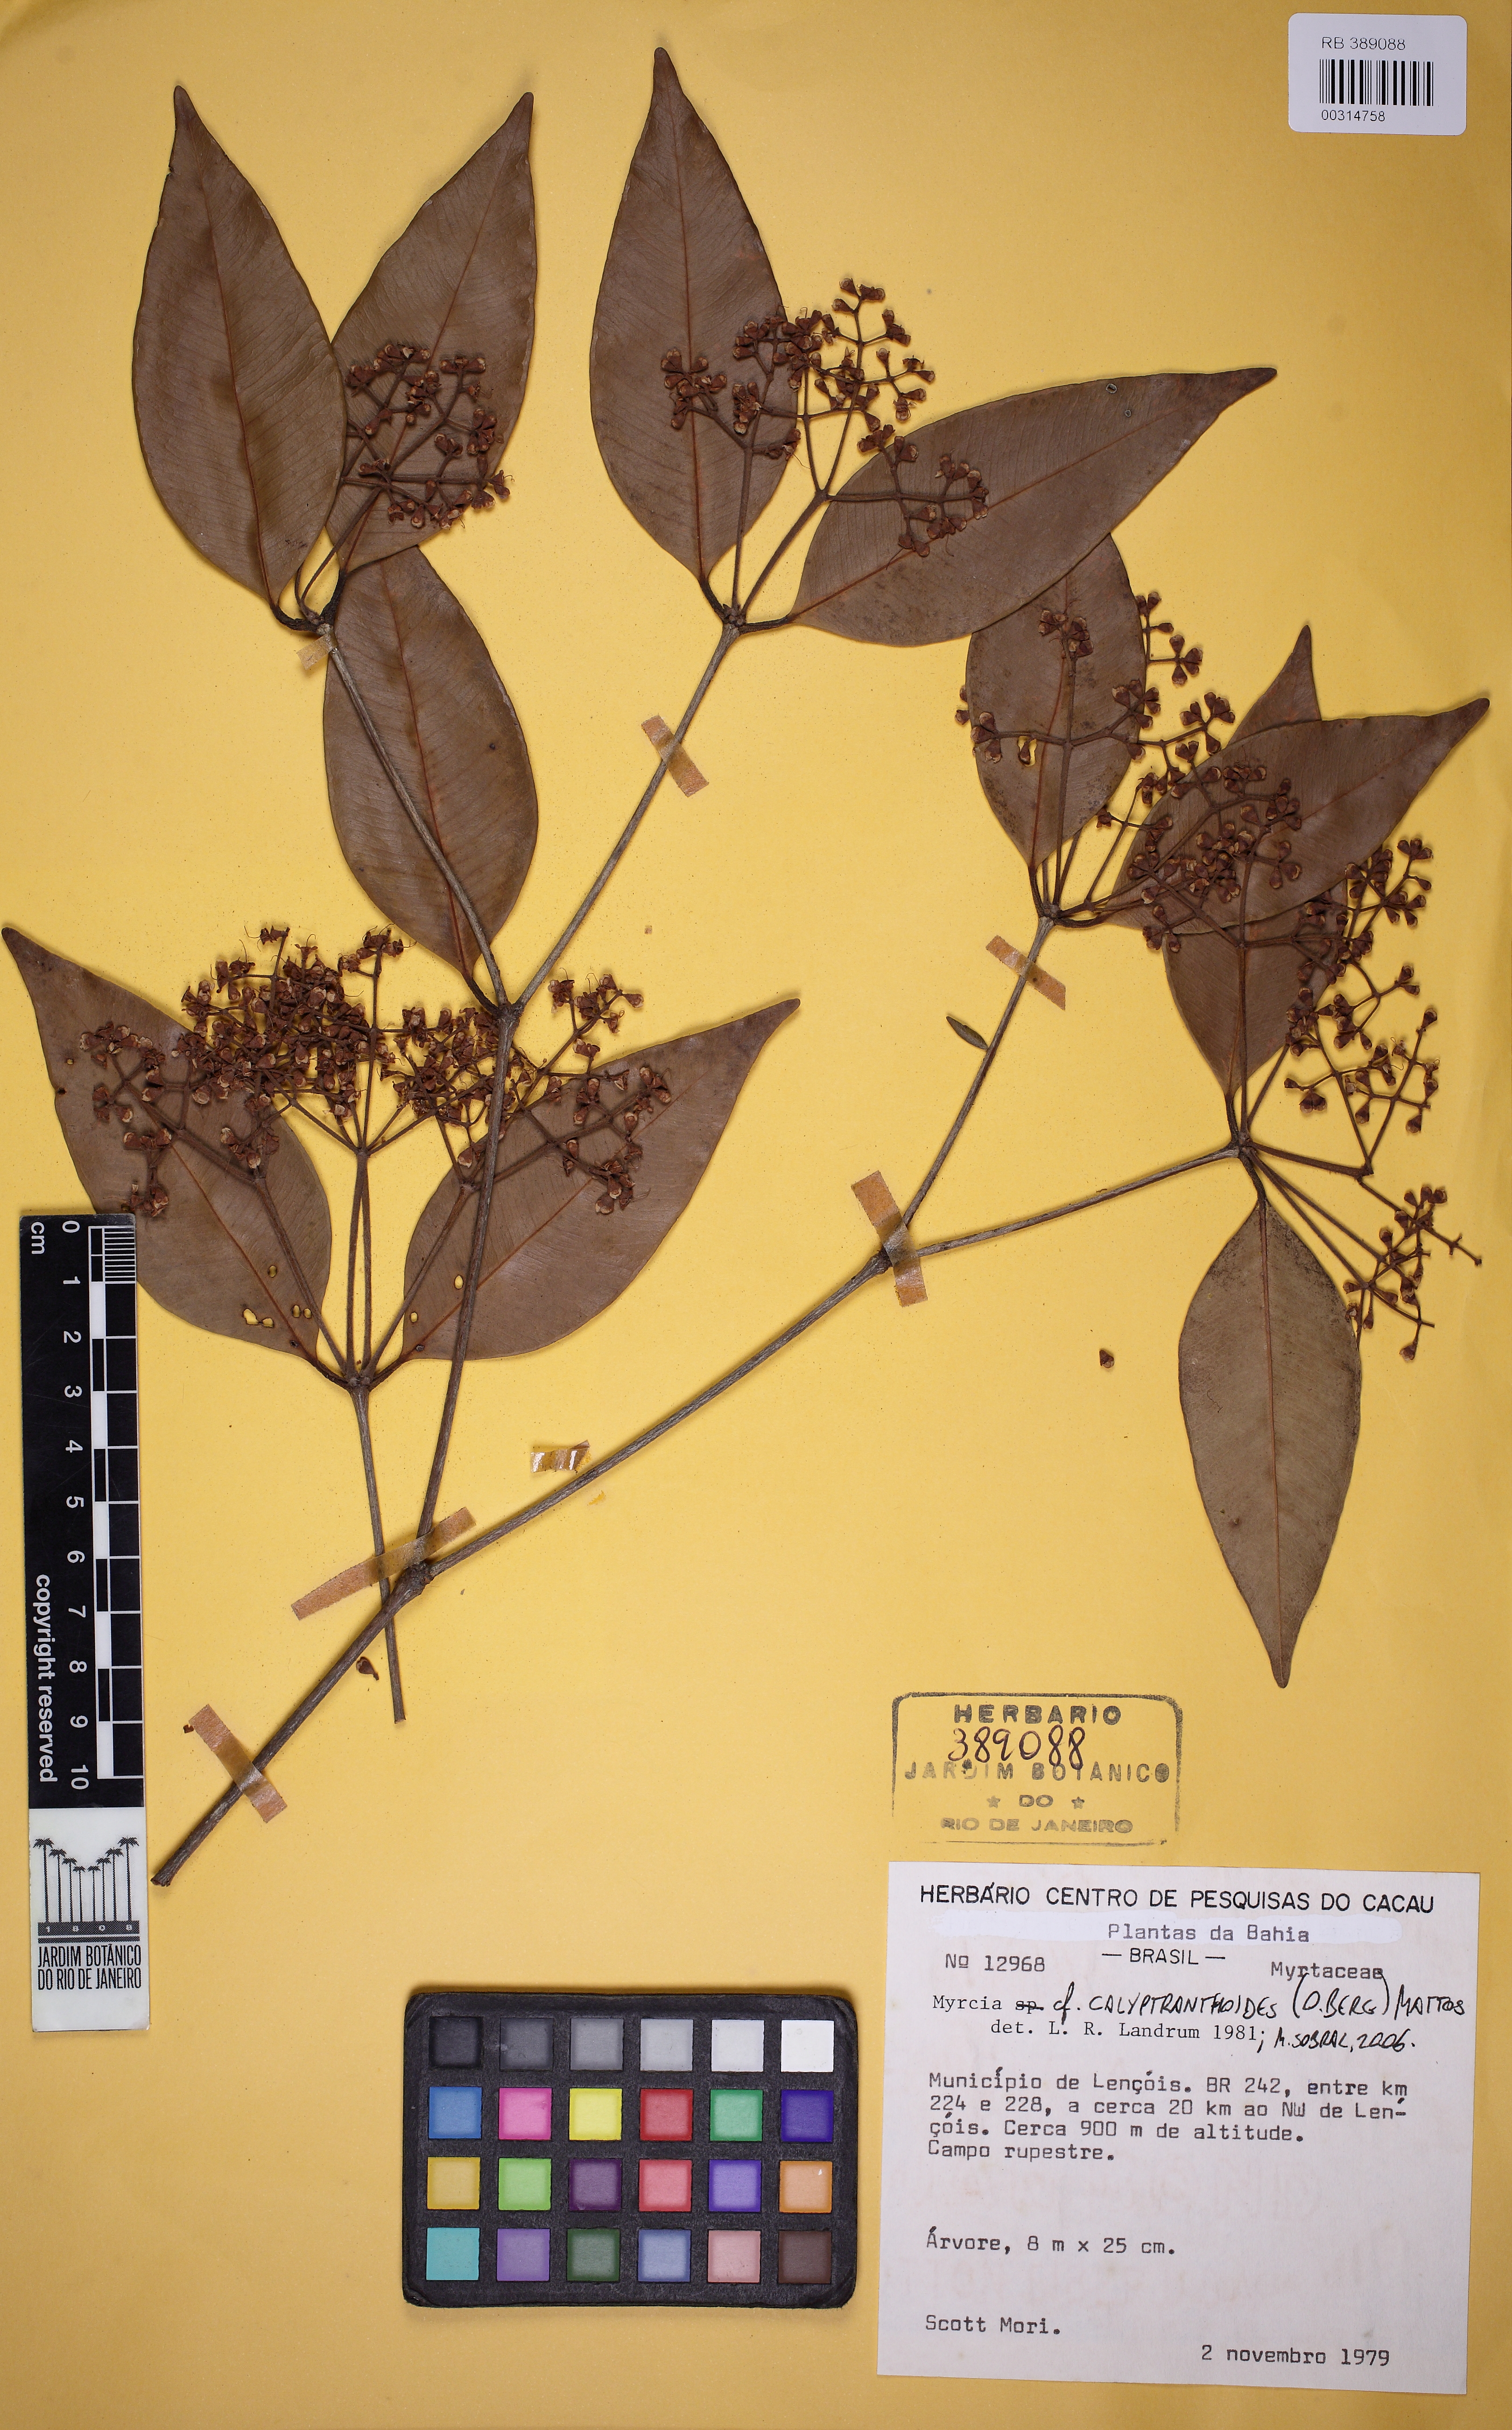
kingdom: Plantae
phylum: Tracheophyta
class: Magnoliopsida
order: Myrtales
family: Myrtaceae
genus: Myrcia
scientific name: Myrcia mutabilis
